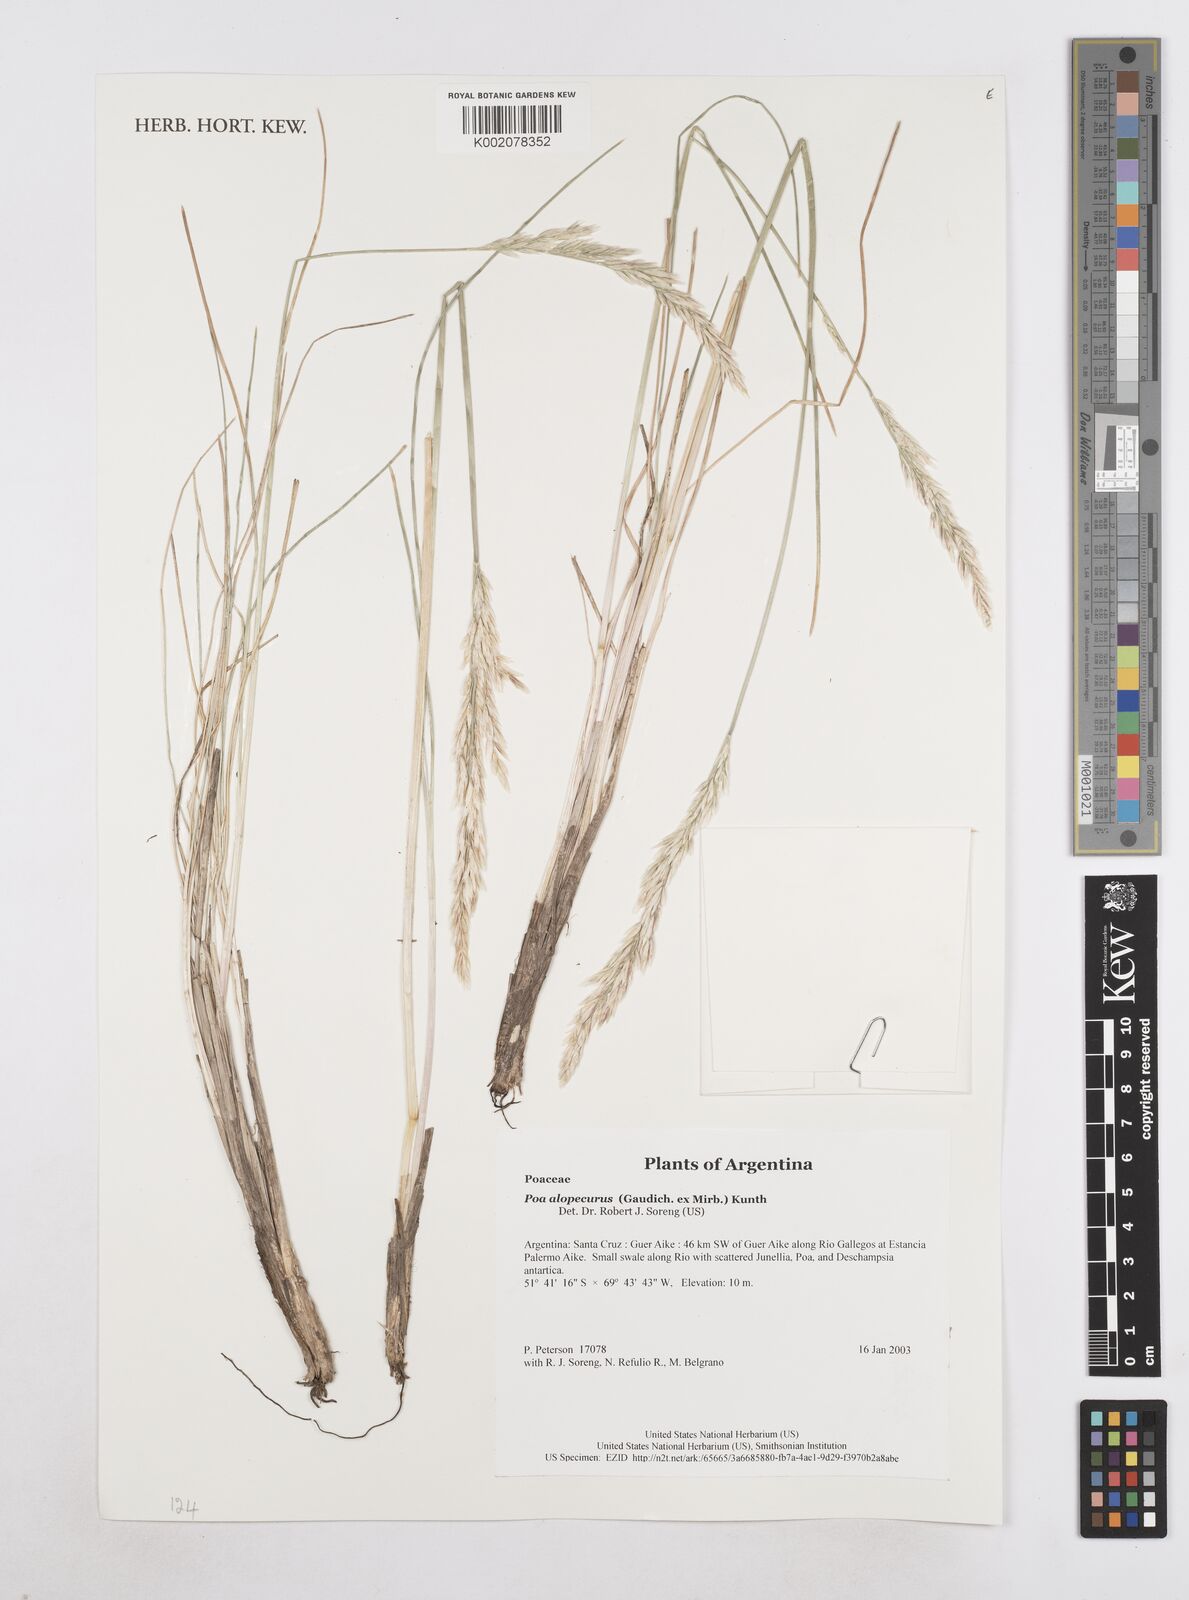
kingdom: Plantae
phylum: Tracheophyta
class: Liliopsida
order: Poales
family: Poaceae
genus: Poa
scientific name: Poa alopecurus
